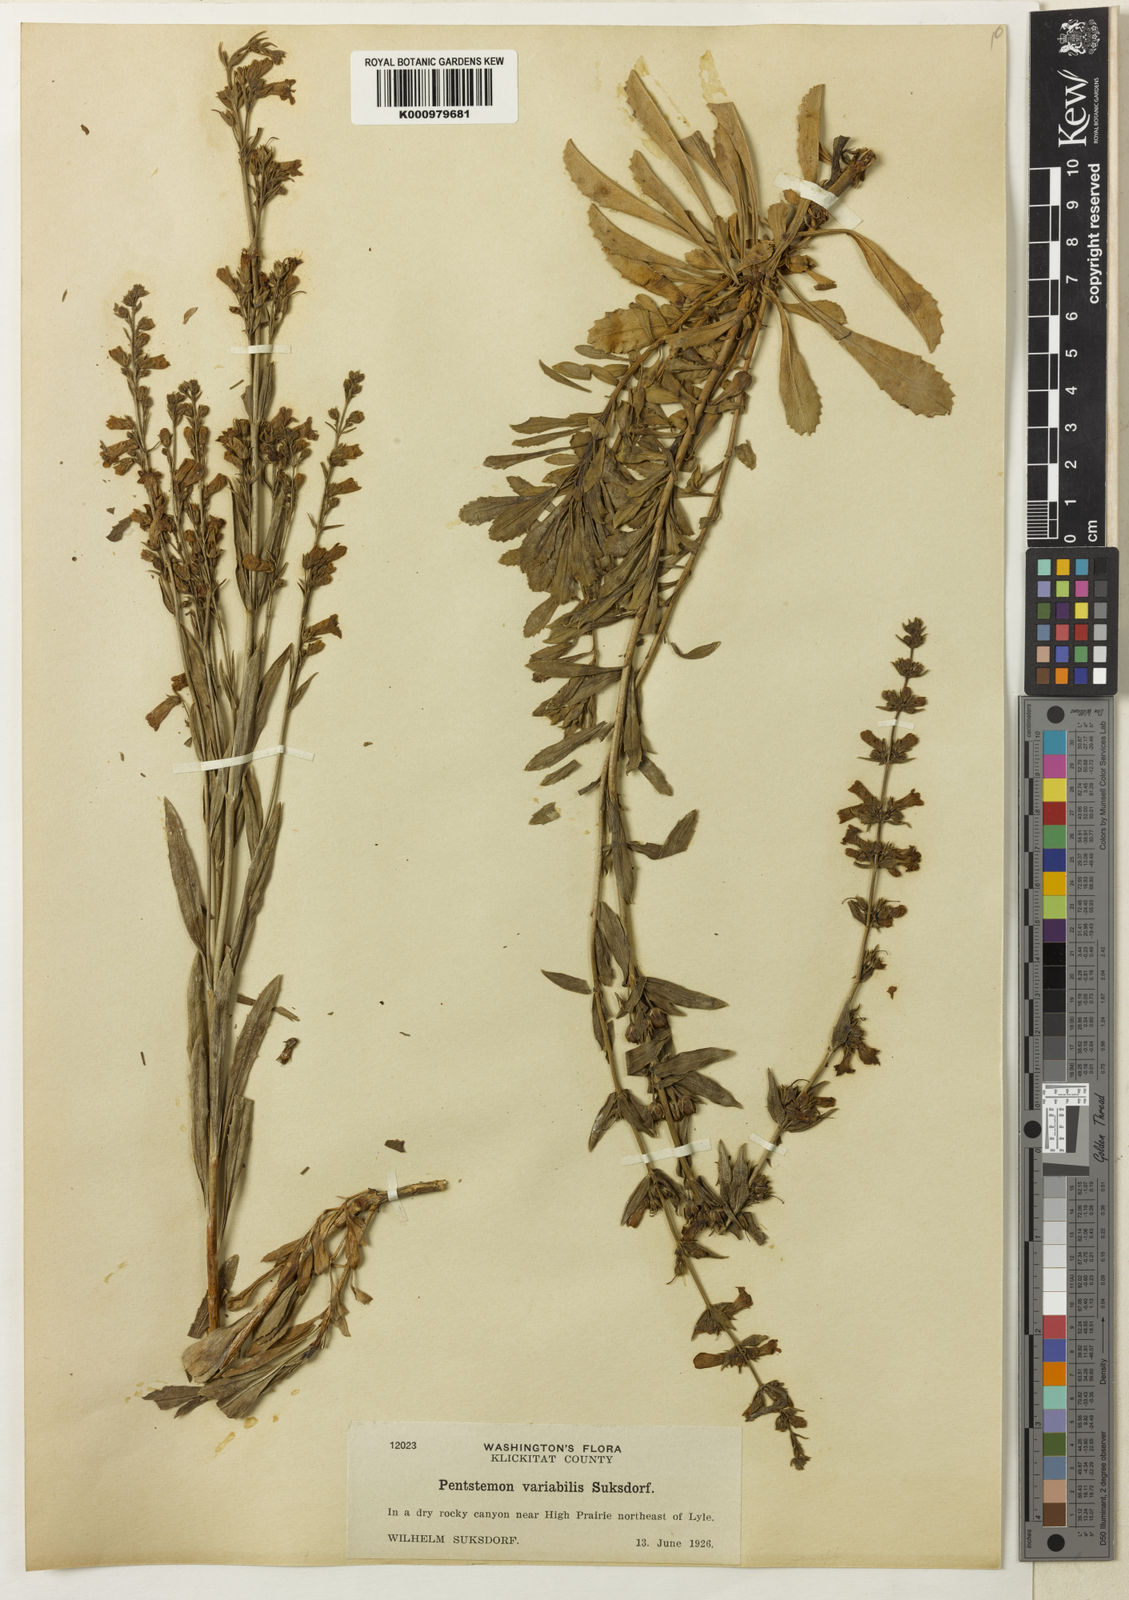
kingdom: Plantae
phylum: Tracheophyta
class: Magnoliopsida
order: Lamiales
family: Plantaginaceae
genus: Penstemon
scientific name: Penstemon
